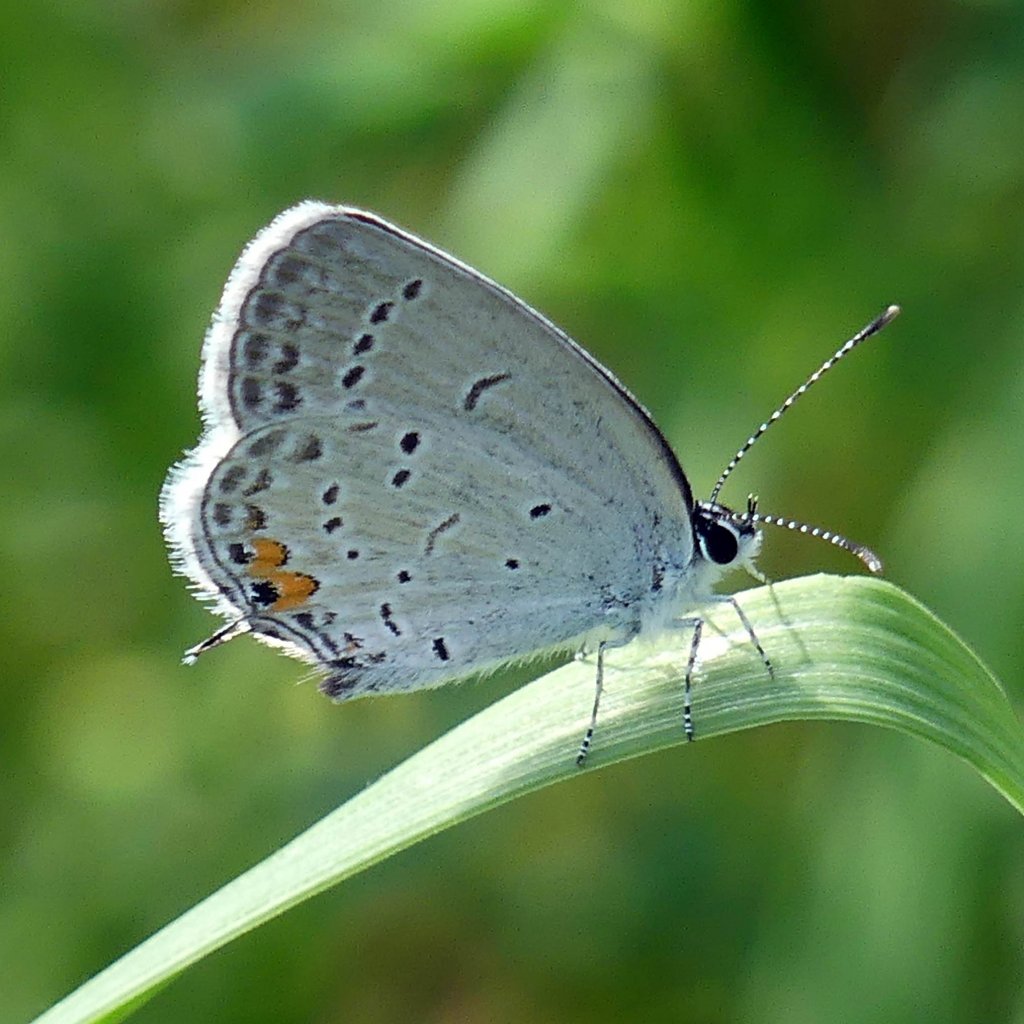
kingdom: Animalia
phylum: Arthropoda
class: Insecta
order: Lepidoptera
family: Lycaenidae
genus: Elkalyce
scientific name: Elkalyce comyntas
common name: Eastern Tailed-Blue
